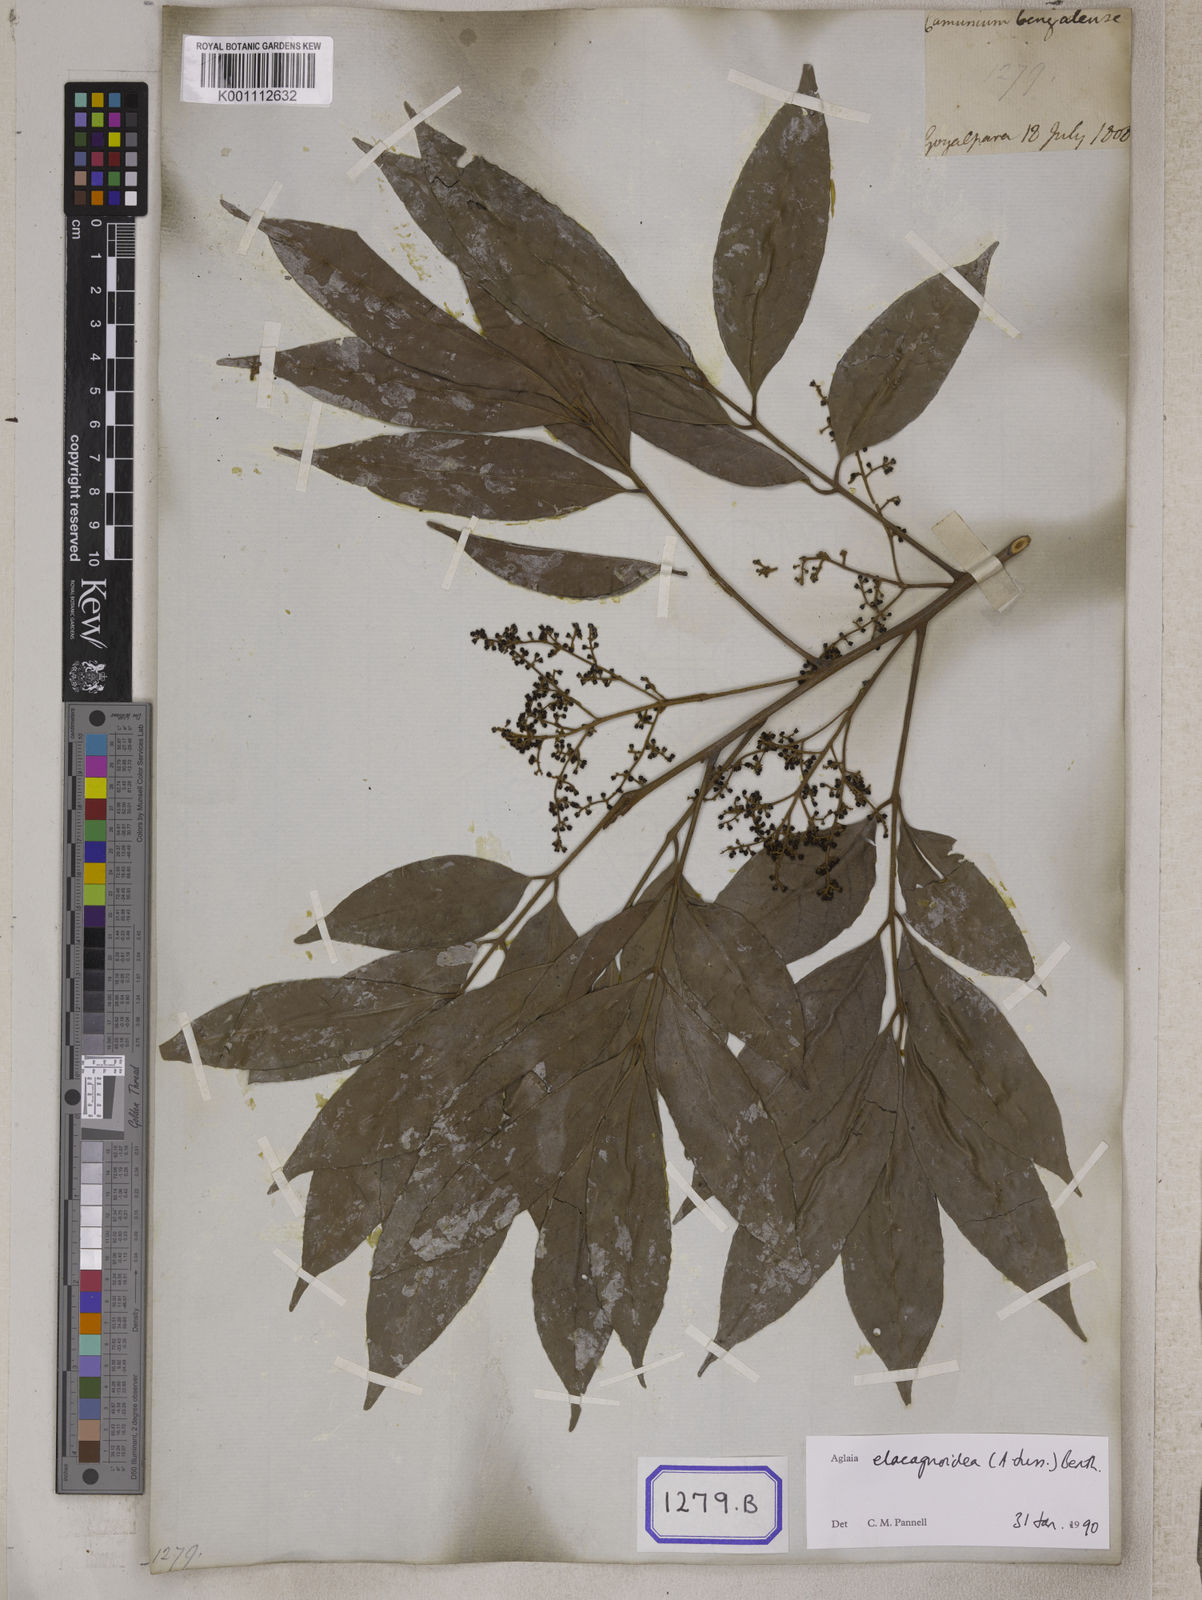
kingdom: Plantae
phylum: Tracheophyta
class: Magnoliopsida
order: Sapindales
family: Meliaceae
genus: Aglaia
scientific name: Aglaia edulis
